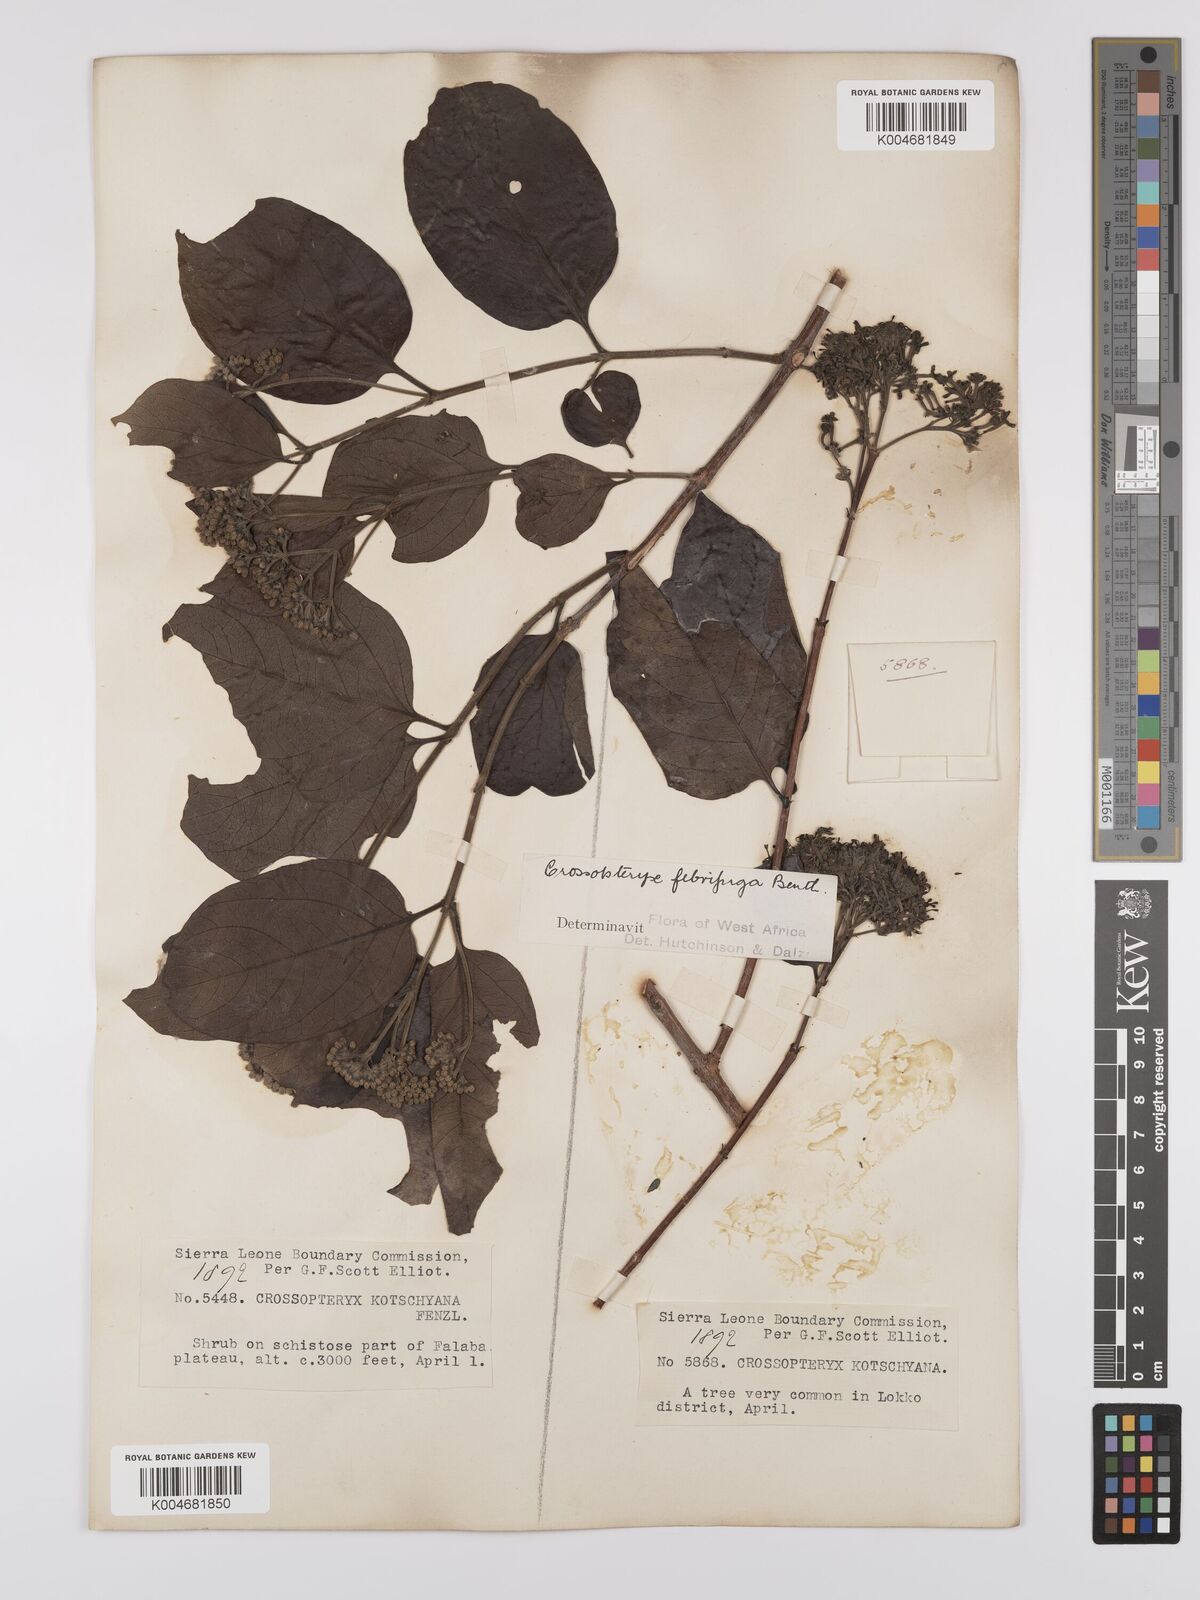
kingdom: Plantae
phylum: Tracheophyta
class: Magnoliopsida
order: Gentianales
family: Rubiaceae
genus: Crossopteryx
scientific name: Crossopteryx febrifuga
